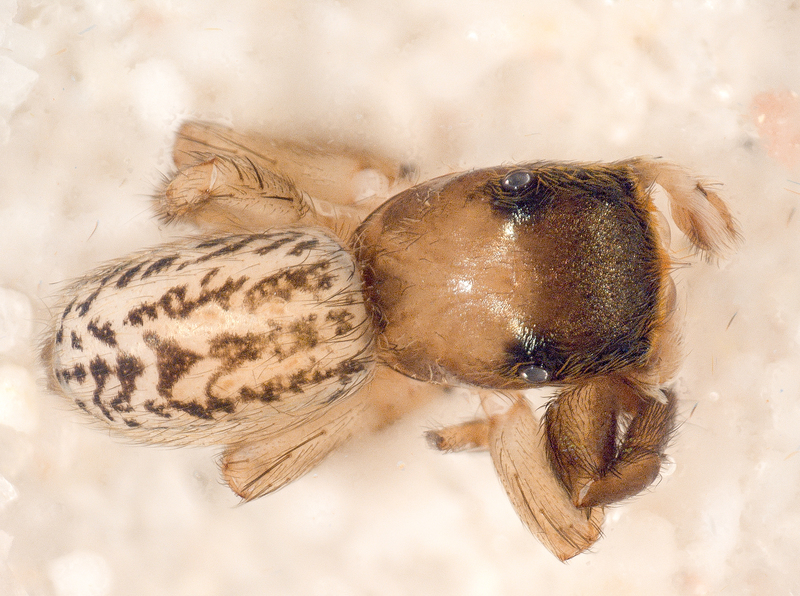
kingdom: Animalia
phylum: Arthropoda
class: Arachnida
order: Araneae
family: Salticidae
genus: Euophrys
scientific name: Euophrys frontalis
